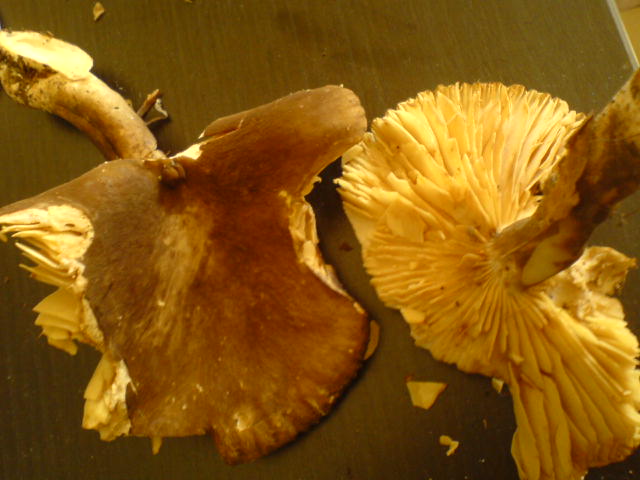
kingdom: Fungi
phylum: Basidiomycota
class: Agaricomycetes
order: Russulales
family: Russulaceae
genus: Lactarius
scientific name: Lactarius romagnesii
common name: fjernbladet mælkehat
